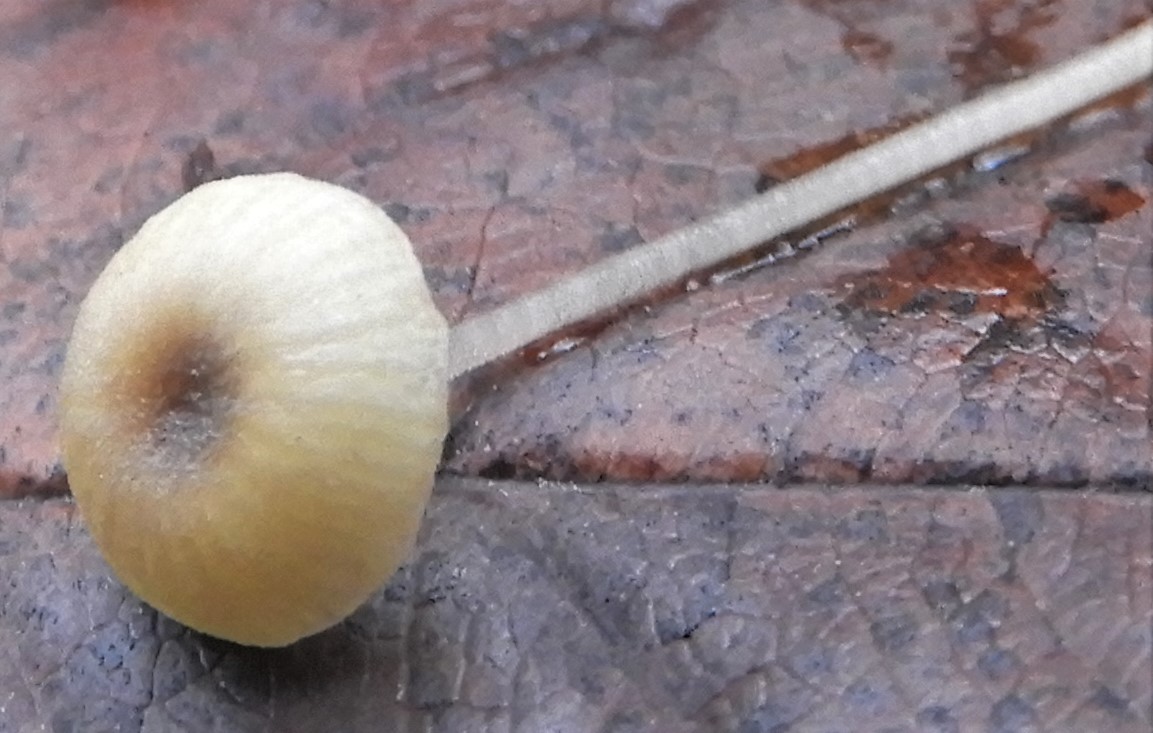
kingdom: Fungi
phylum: Basidiomycota
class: Agaricomycetes
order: Hymenochaetales
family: Rickenellaceae
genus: Rickenella
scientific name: Rickenella swartzii
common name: finstokket mosnavlehat
